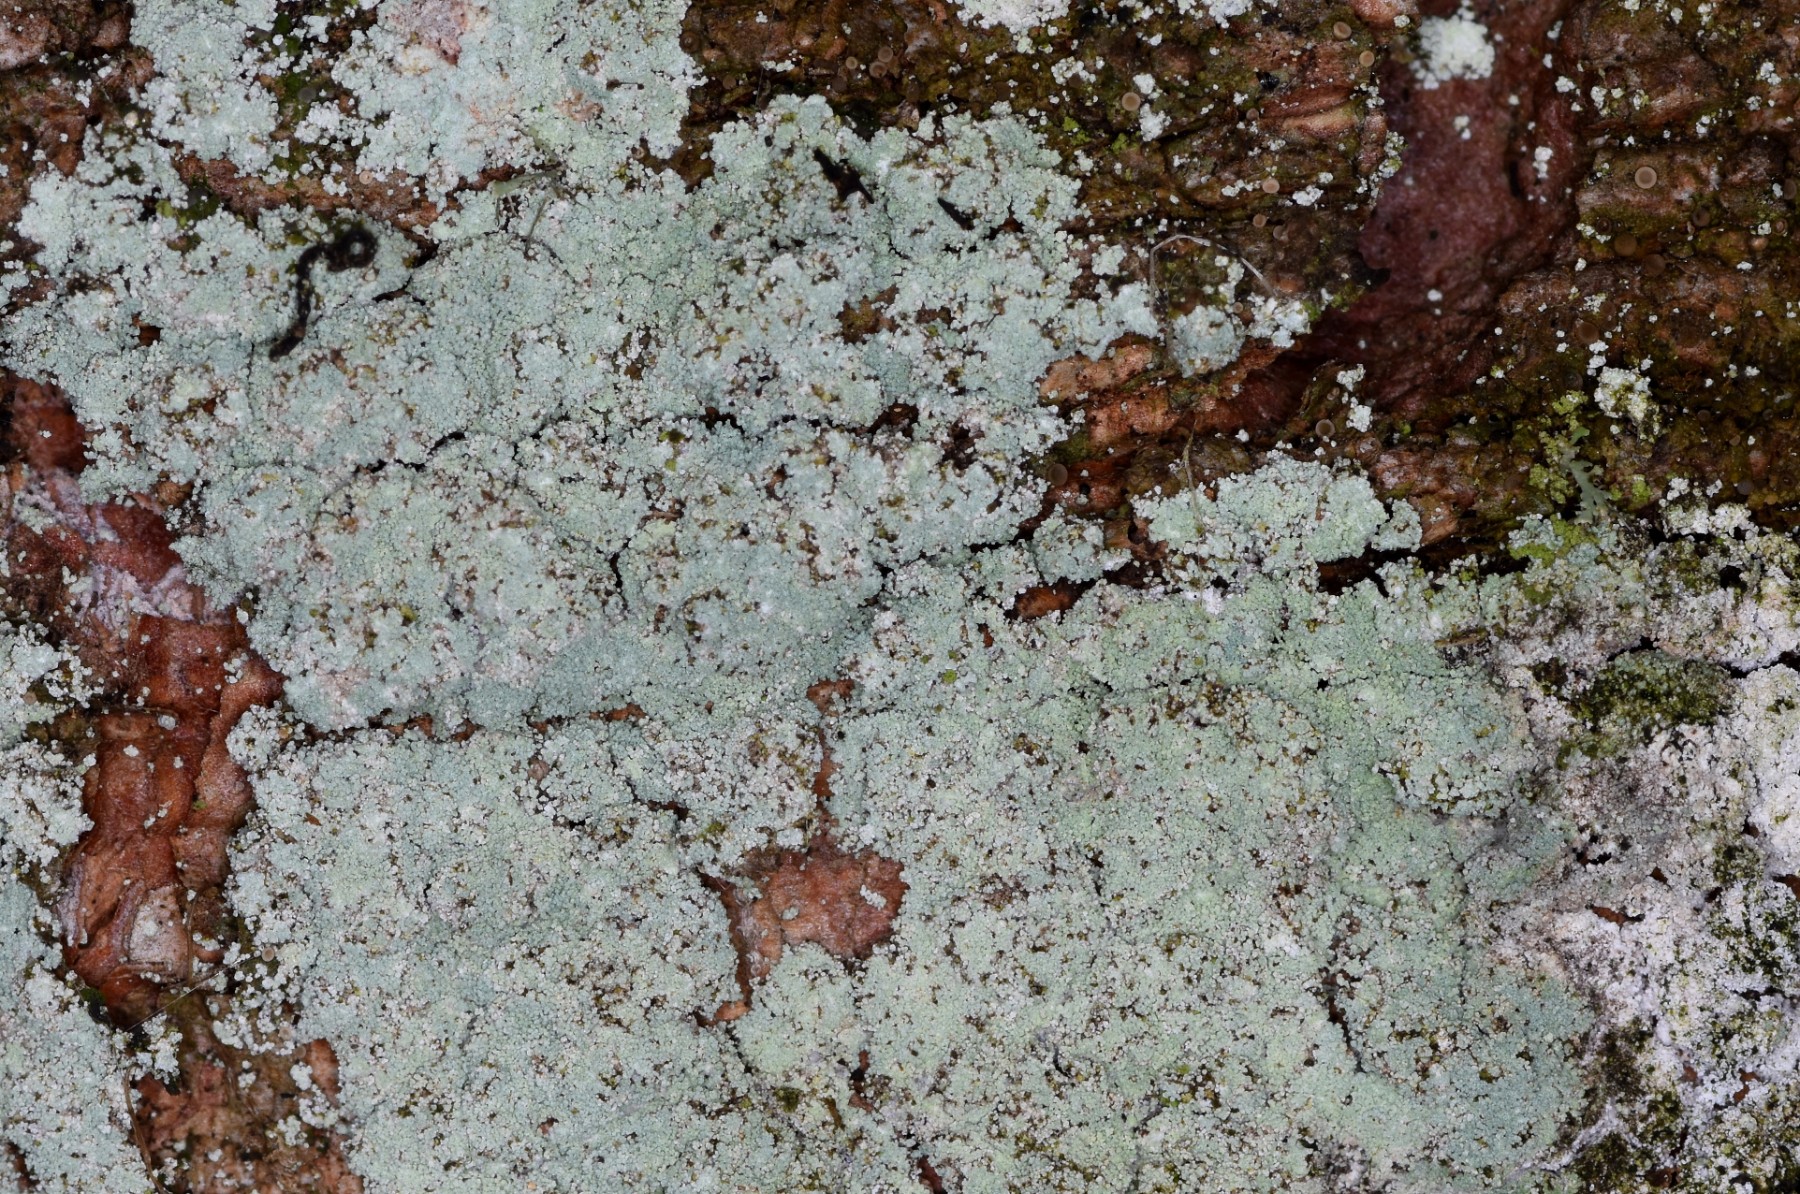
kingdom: Fungi
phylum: Ascomycota
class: Lecanoromycetes
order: Lecanorales
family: Stereocaulaceae
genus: Lepraria
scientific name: Lepraria incana
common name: almindelig støvlav
